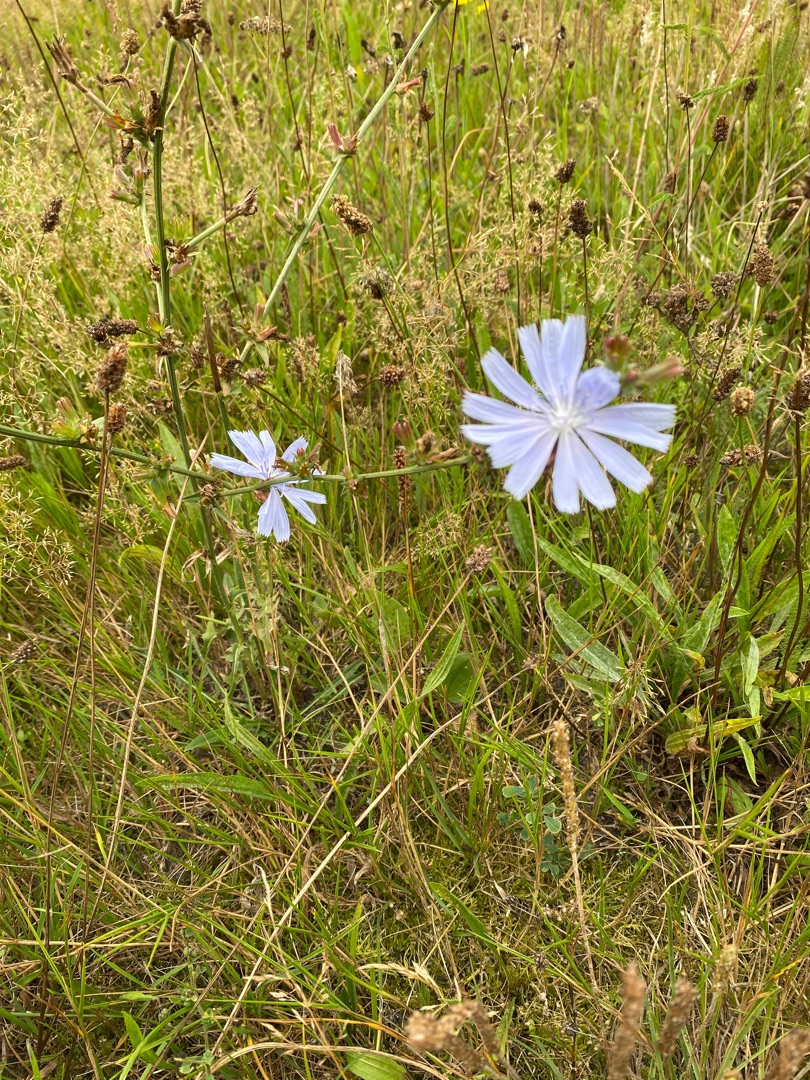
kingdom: Plantae
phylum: Tracheophyta
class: Magnoliopsida
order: Asterales
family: Asteraceae
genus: Cichorium
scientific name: Cichorium intybus
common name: Cikorie
